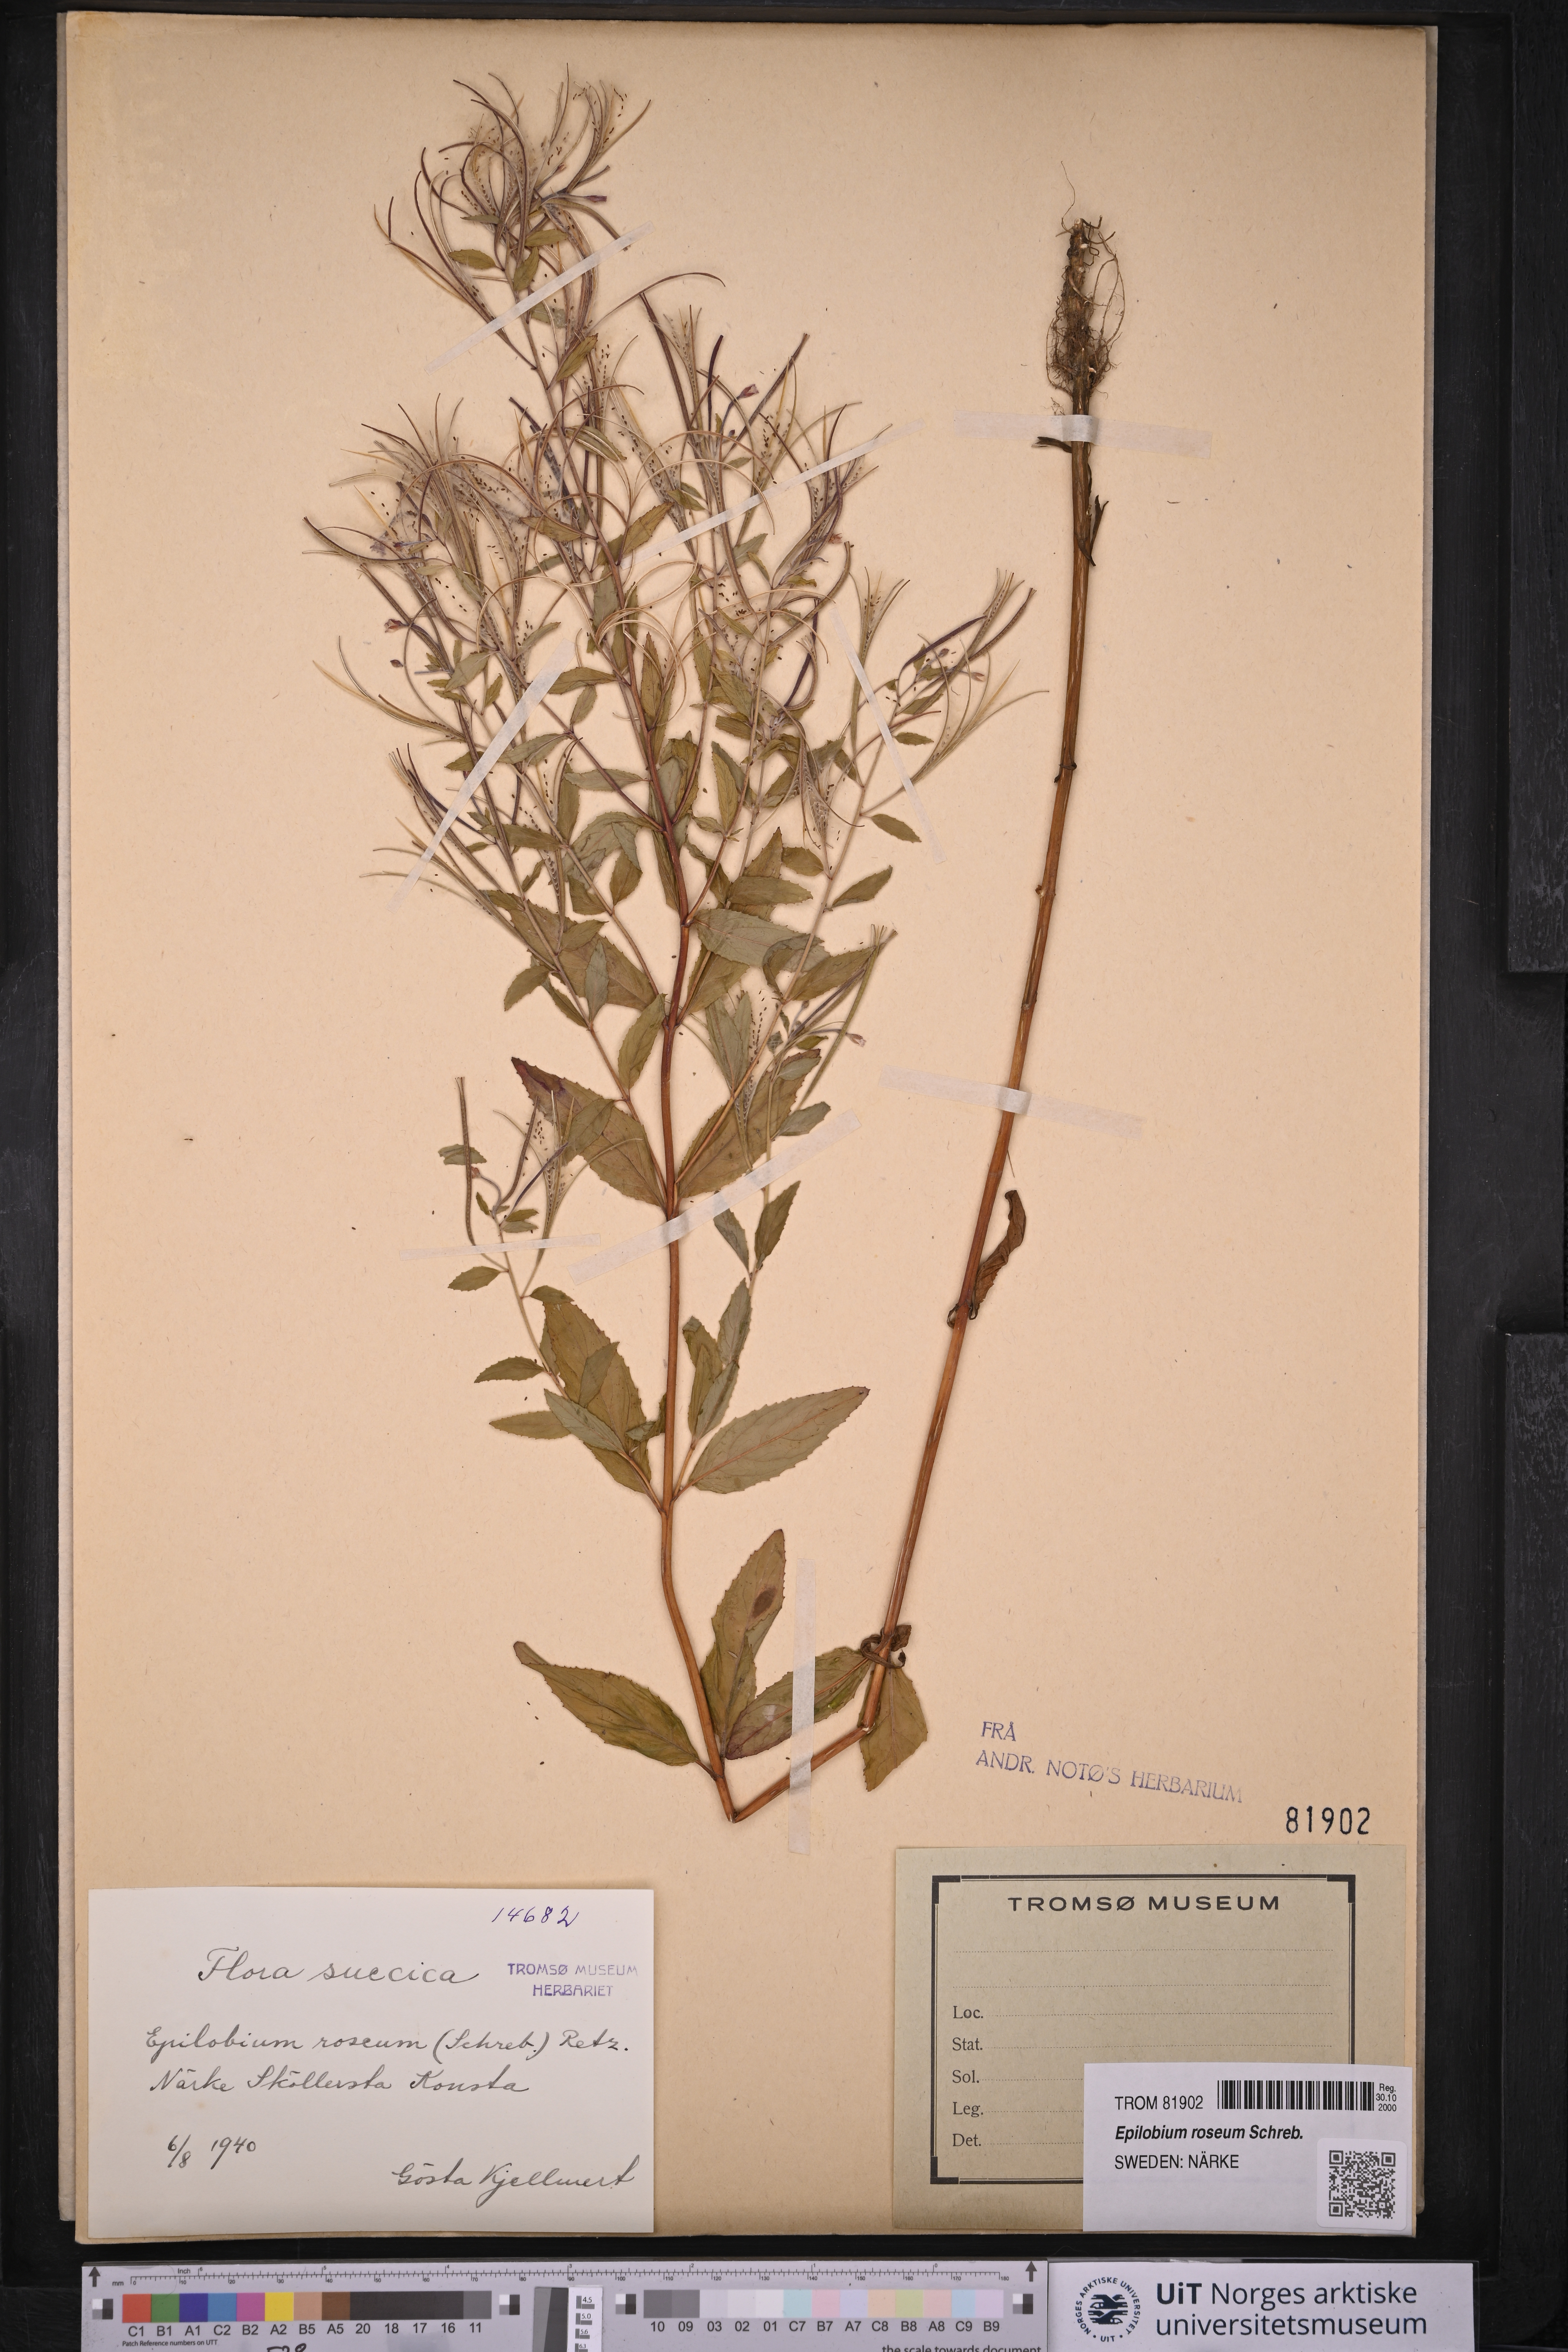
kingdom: Plantae
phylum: Tracheophyta
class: Magnoliopsida
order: Myrtales
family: Onagraceae
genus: Epilobium
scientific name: Epilobium roseum
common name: Pale willowherb
